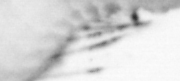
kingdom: Animalia
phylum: Arthropoda
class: Copepoda
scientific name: Copepoda
